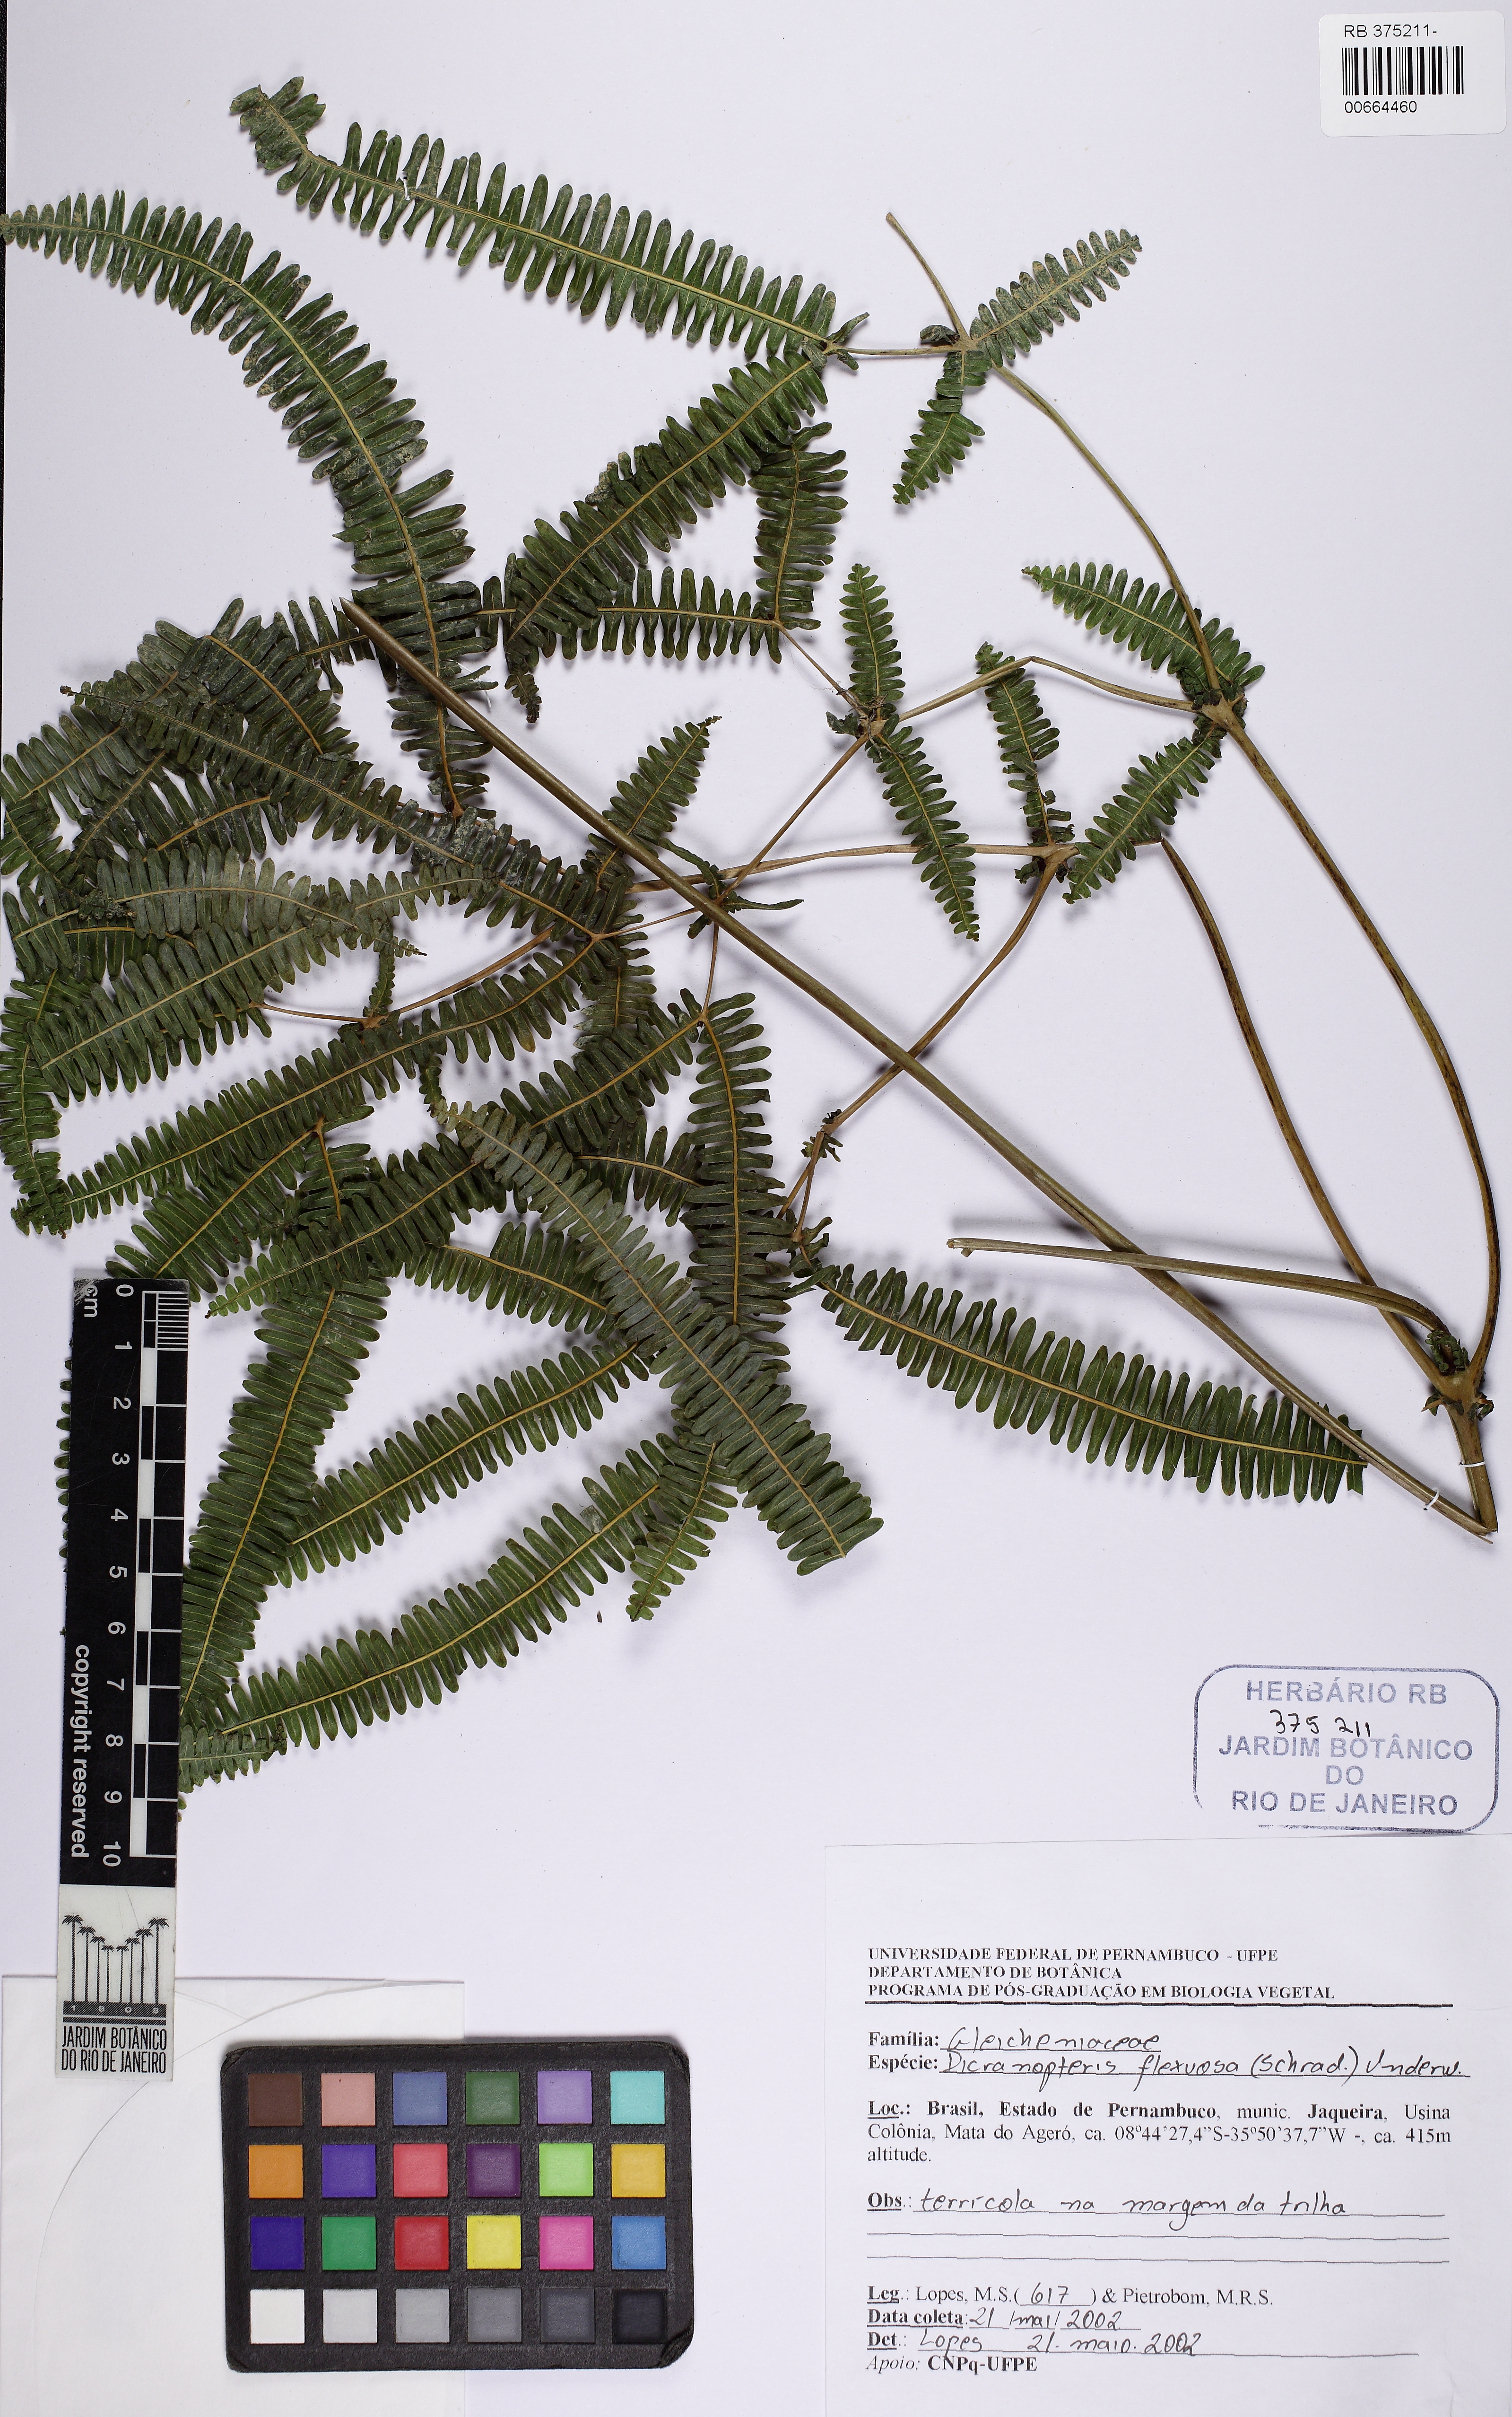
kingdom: Plantae
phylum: Tracheophyta
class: Polypodiopsida
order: Gleicheniales
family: Gleicheniaceae
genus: Dicranopteris
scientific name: Dicranopteris flexuosa
